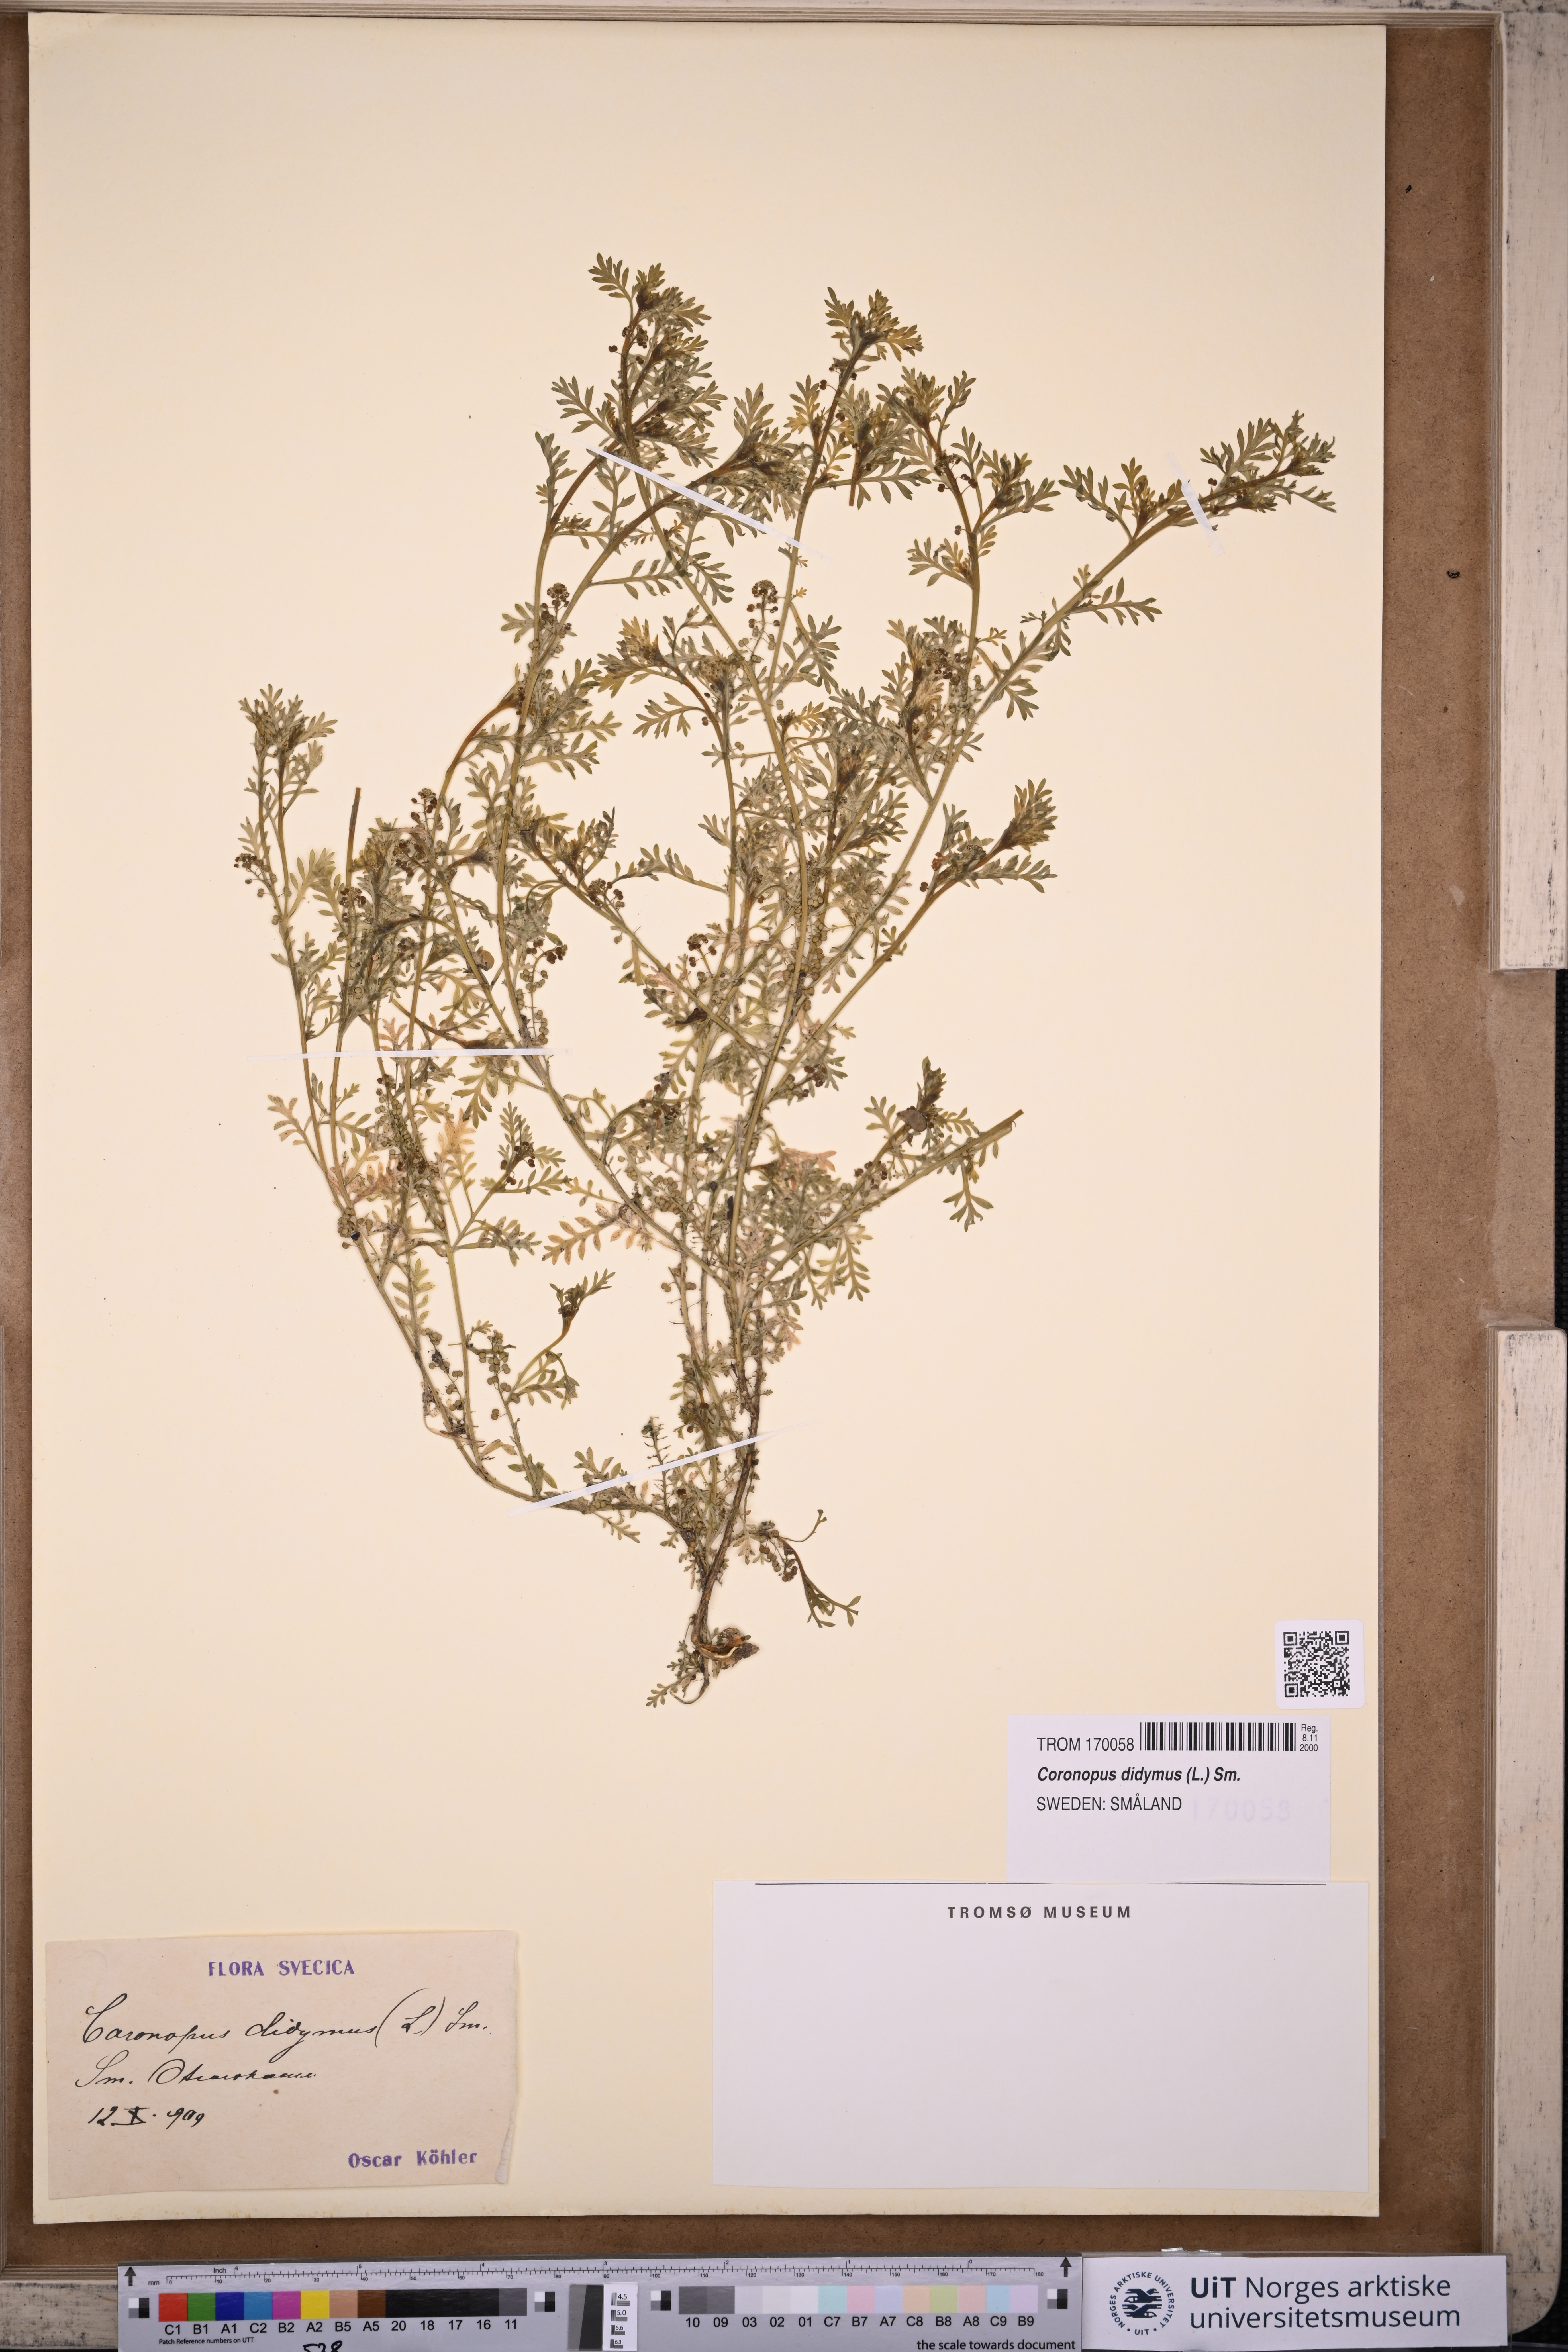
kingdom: Plantae
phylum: Tracheophyta
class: Magnoliopsida
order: Brassicales
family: Brassicaceae
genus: Lepidium
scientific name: Lepidium didymum
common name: Lesser swinecress
